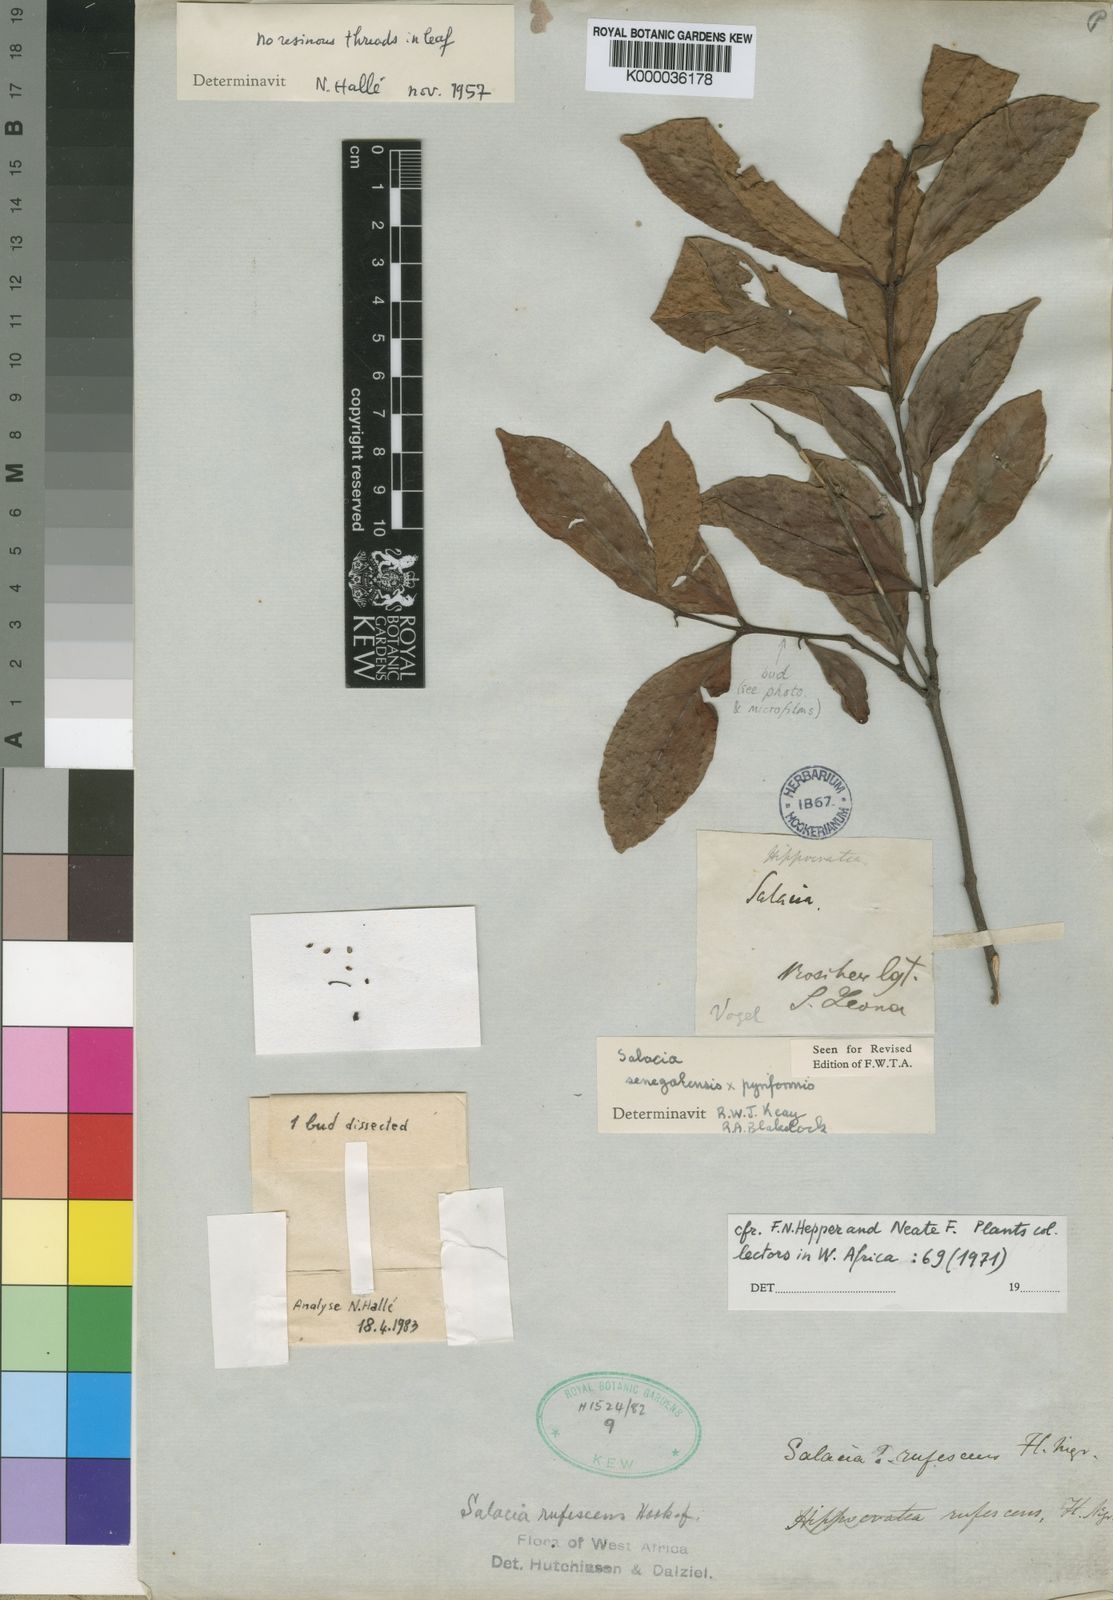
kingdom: Plantae
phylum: Tracheophyta
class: Magnoliopsida
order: Celastrales
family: Celastraceae
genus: Salacia
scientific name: Salacia rufescens
